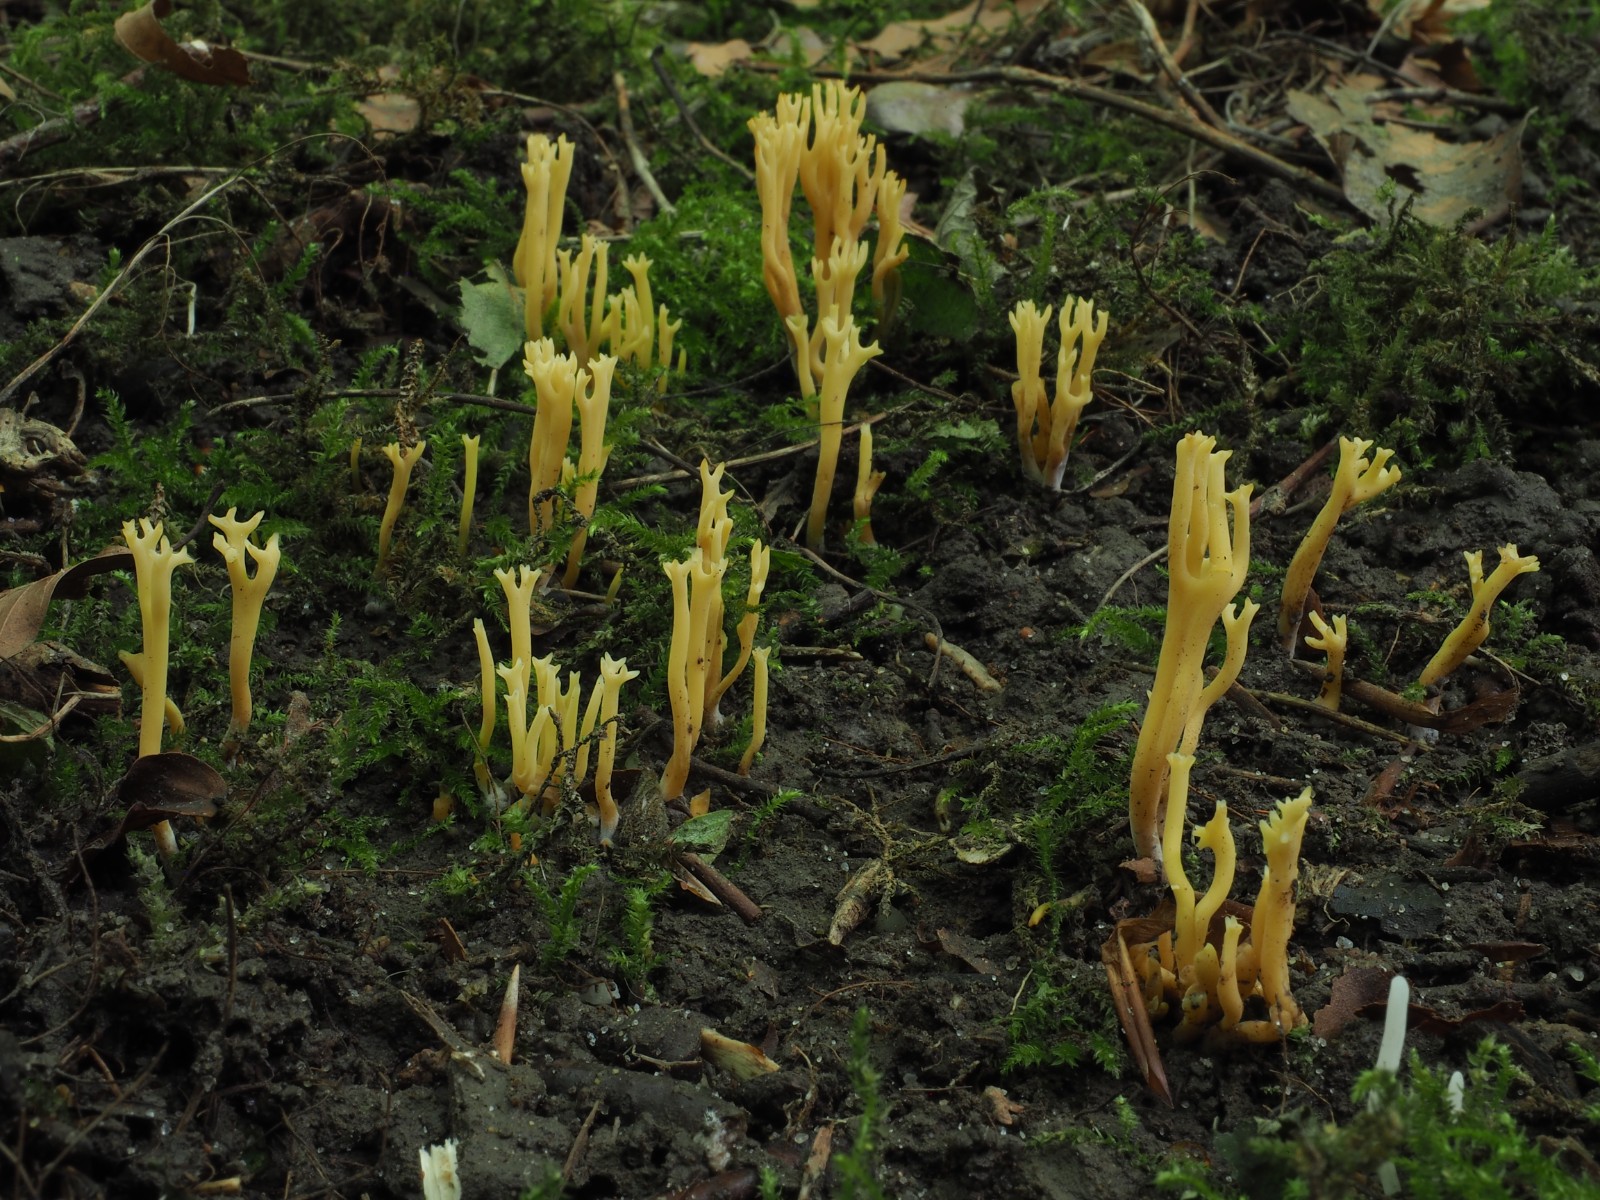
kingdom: Fungi
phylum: Basidiomycota
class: Agaricomycetes
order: Agaricales
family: Clavariaceae
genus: Clavulinopsis
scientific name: Clavulinopsis corniculata
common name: eng-køllesvamp
